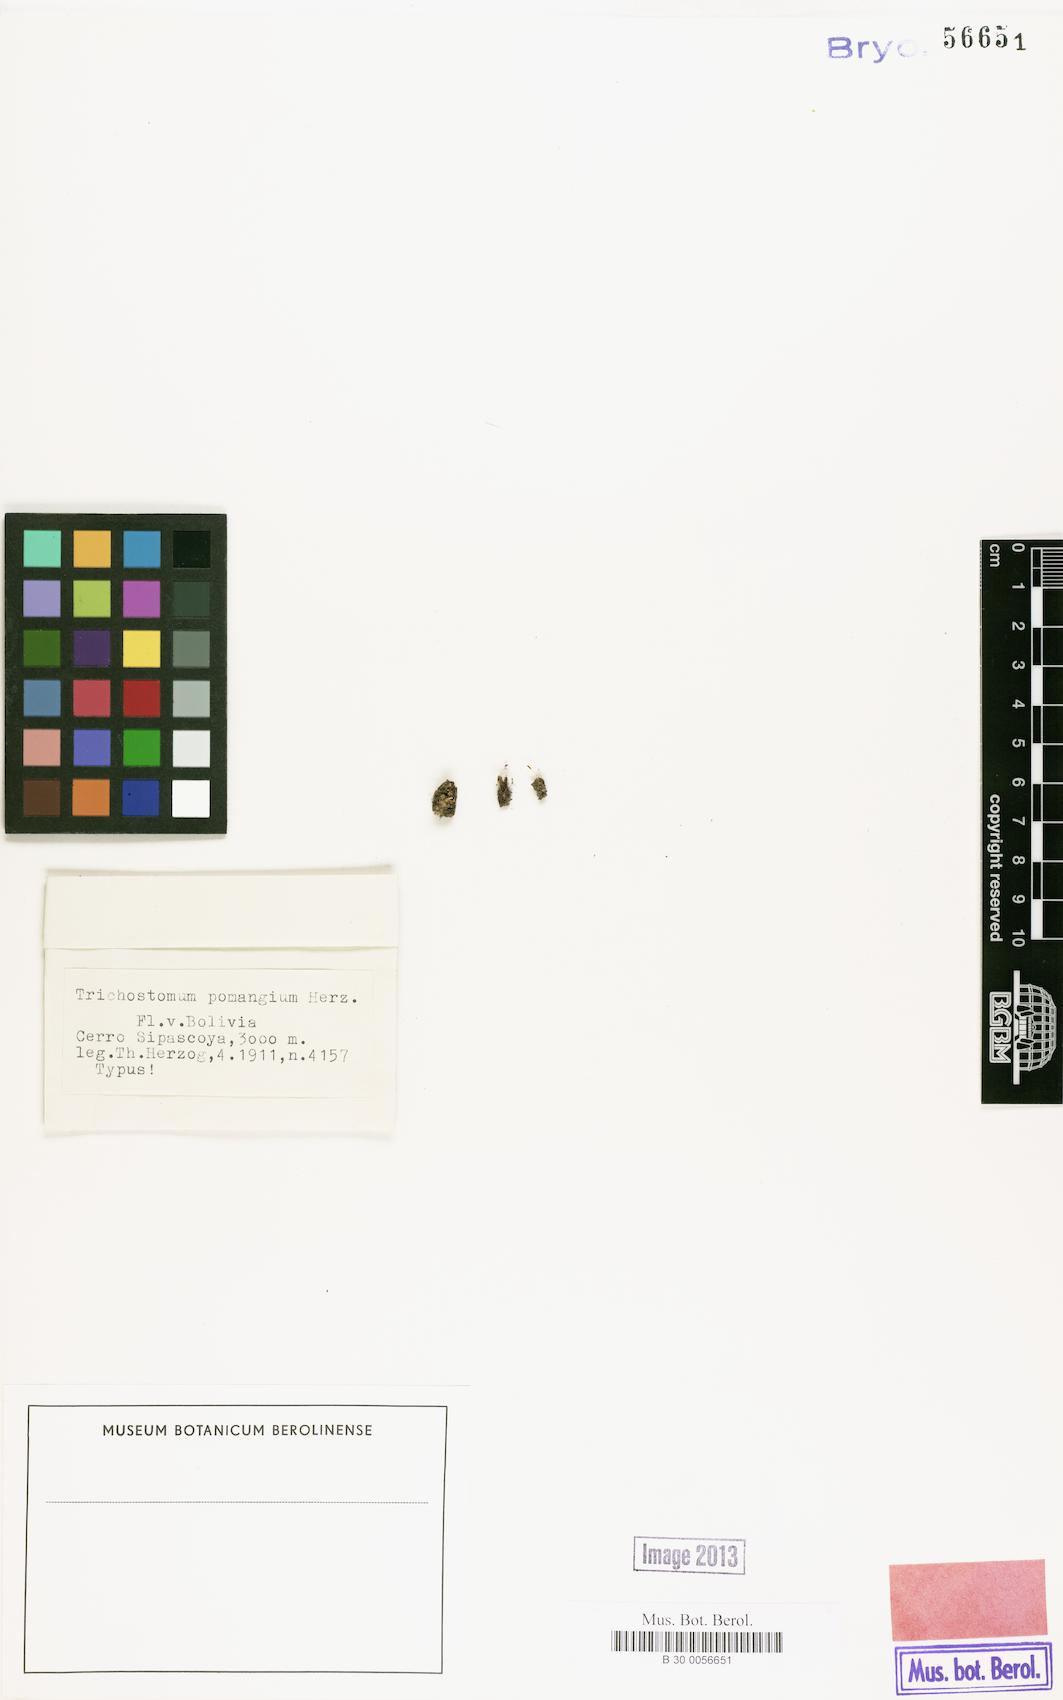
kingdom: Plantae
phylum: Bryophyta
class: Bryopsida
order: Pottiales
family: Pottiaceae
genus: Trichostomum
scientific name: Trichostomum pomangium
